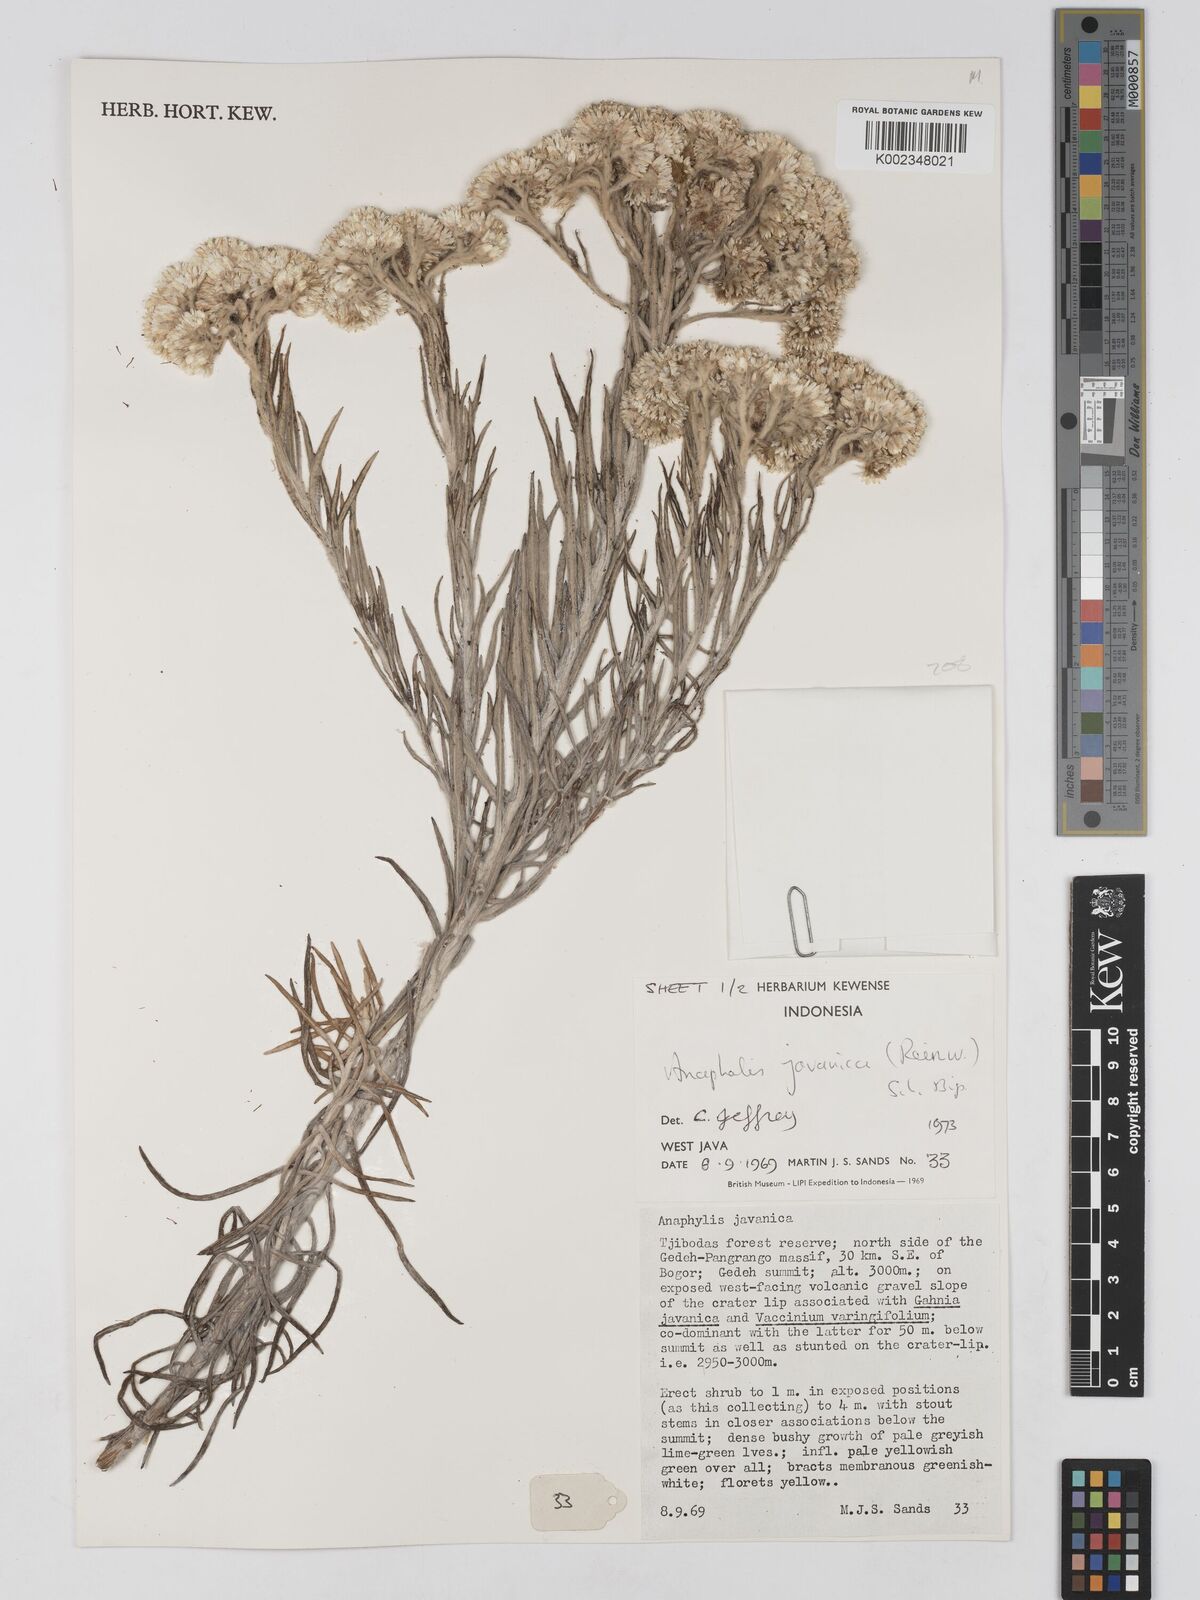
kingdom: Plantae
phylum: Tracheophyta
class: Magnoliopsida
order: Asterales
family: Asteraceae
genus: Anaphalis
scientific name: Anaphalis javanica
